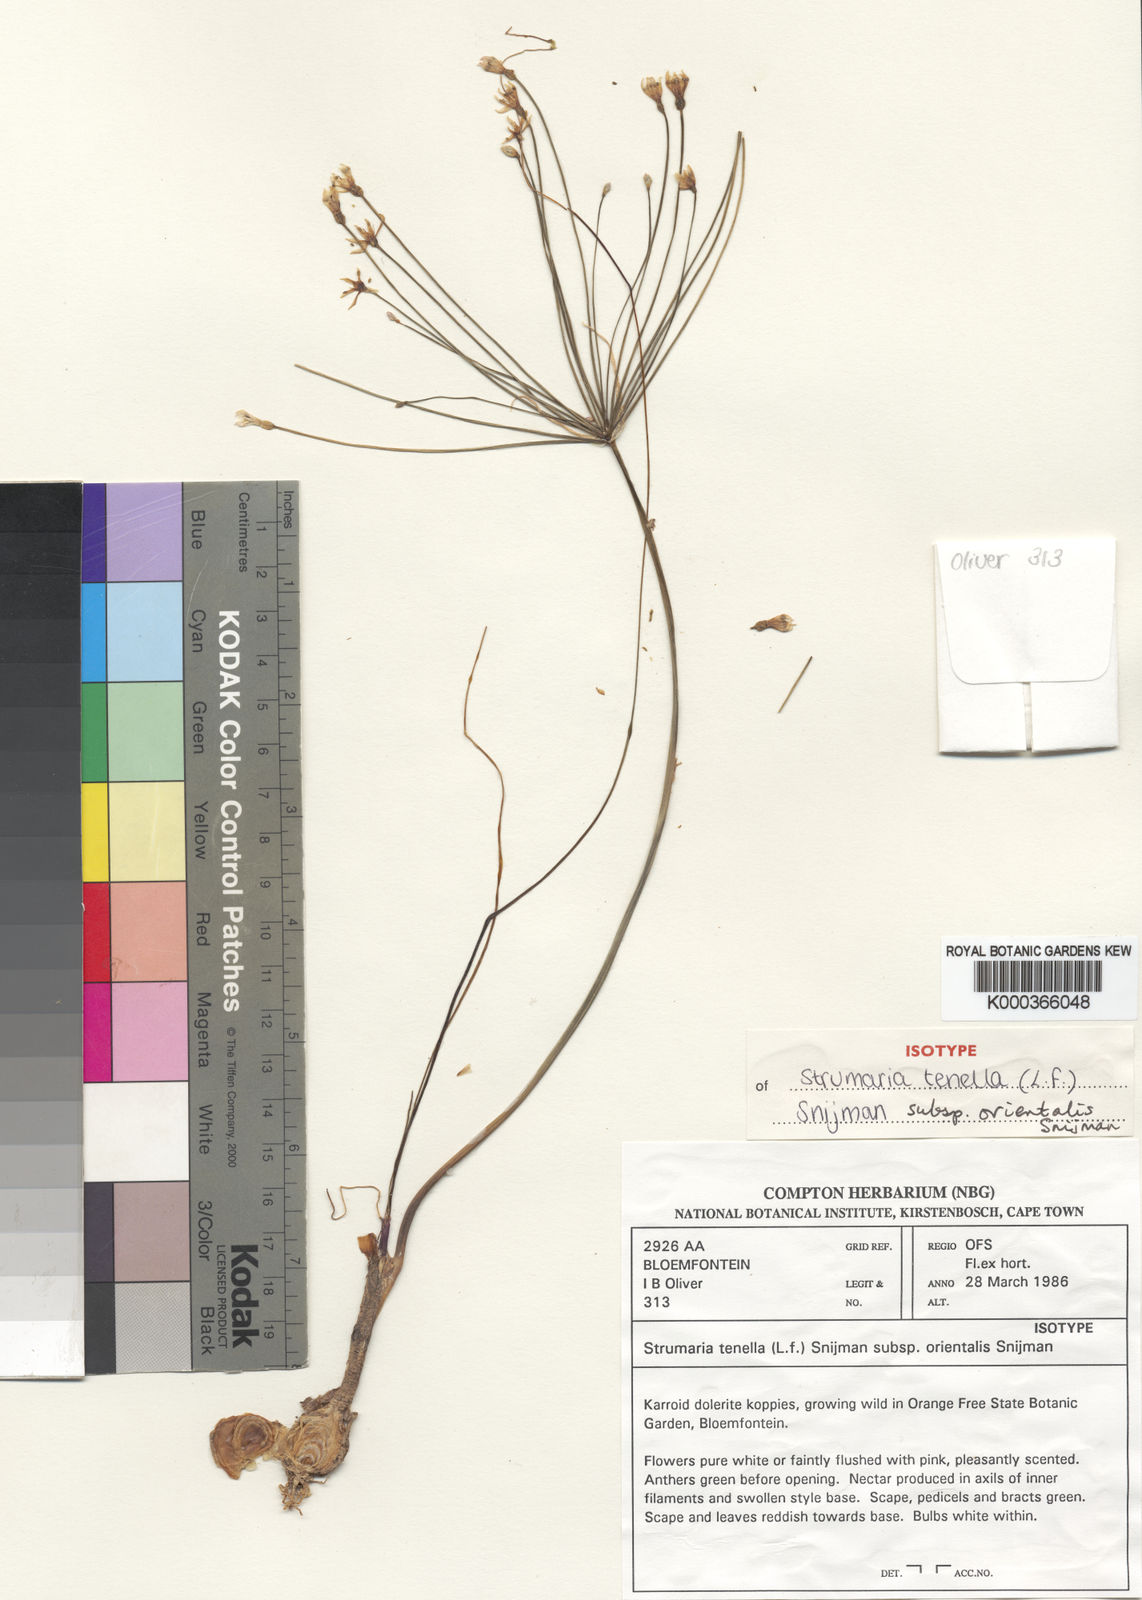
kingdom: Plantae
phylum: Tracheophyta
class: Liliopsida
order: Asparagales
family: Amaryllidaceae
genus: Strumaria
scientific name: Strumaria tenella
